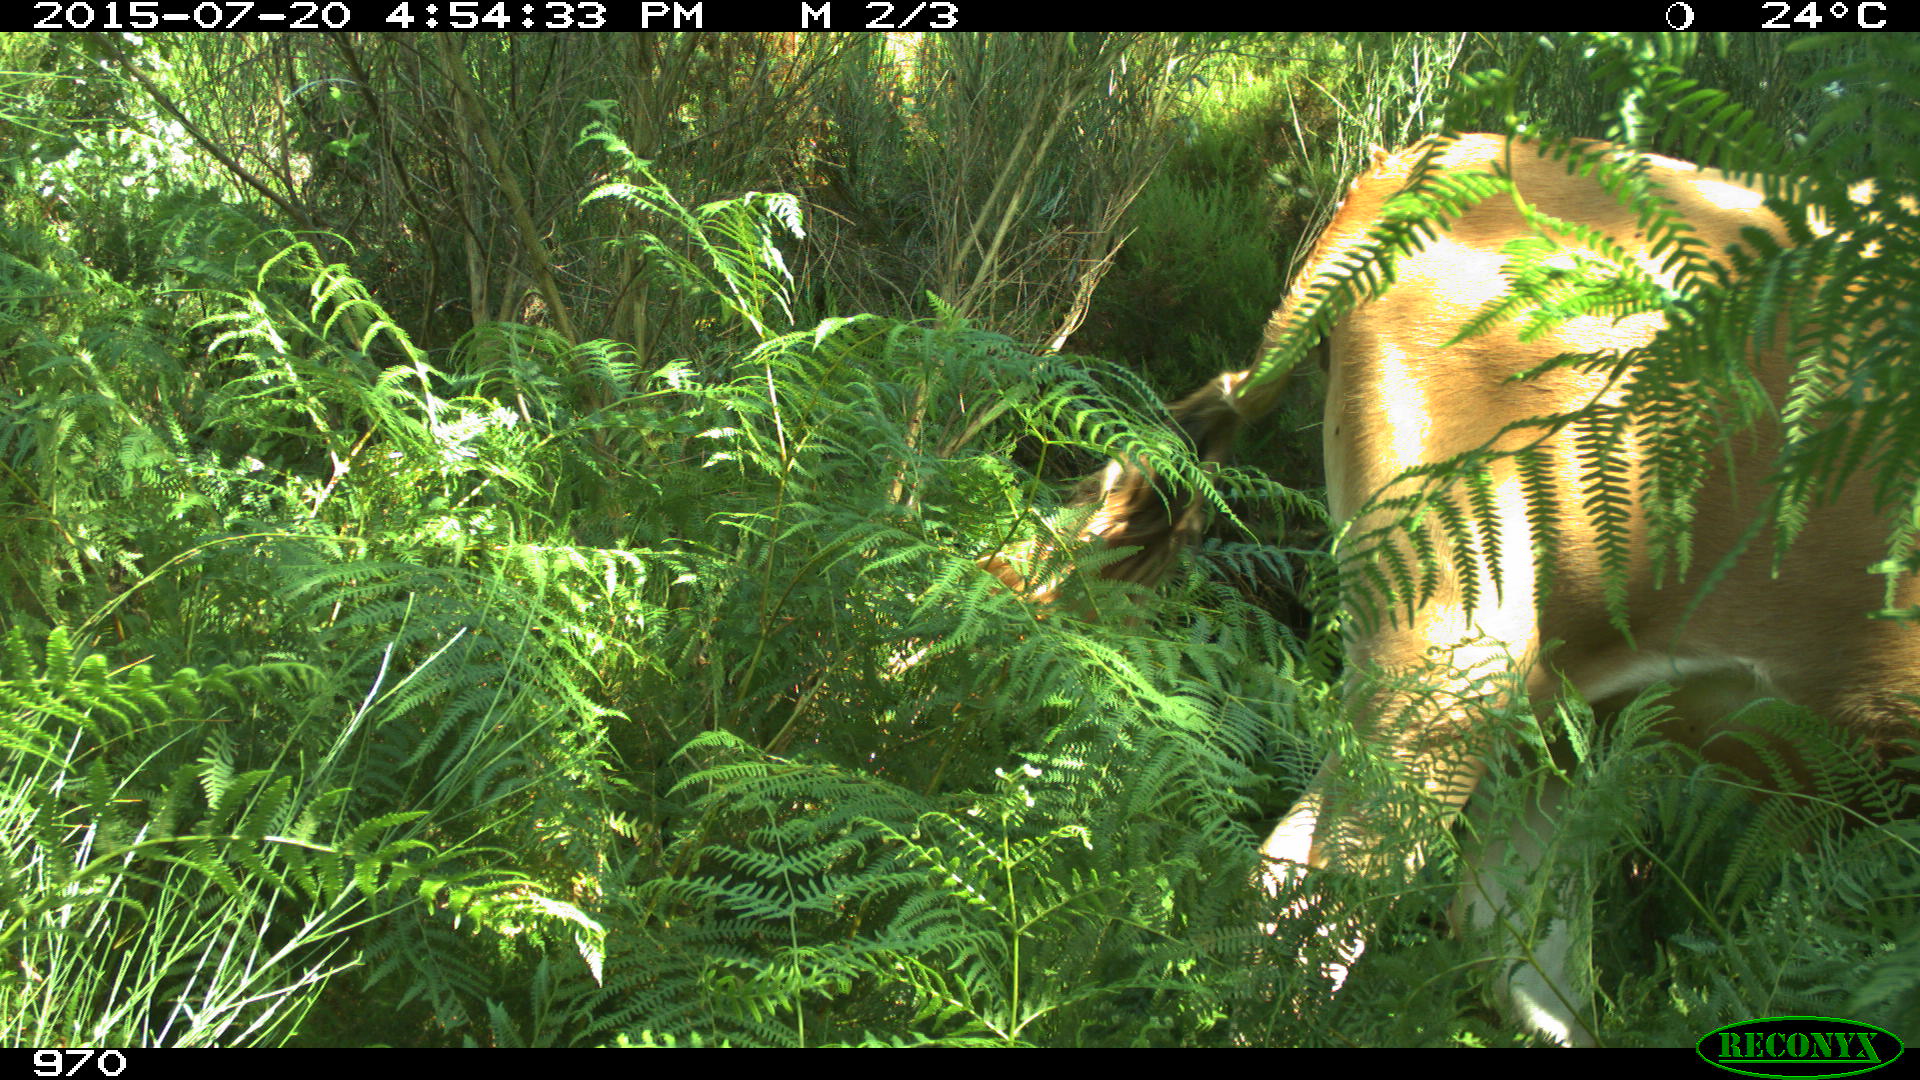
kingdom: Animalia
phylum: Chordata
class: Mammalia
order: Artiodactyla
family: Bovidae
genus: Bos
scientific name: Bos taurus
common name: Domesticated cattle
